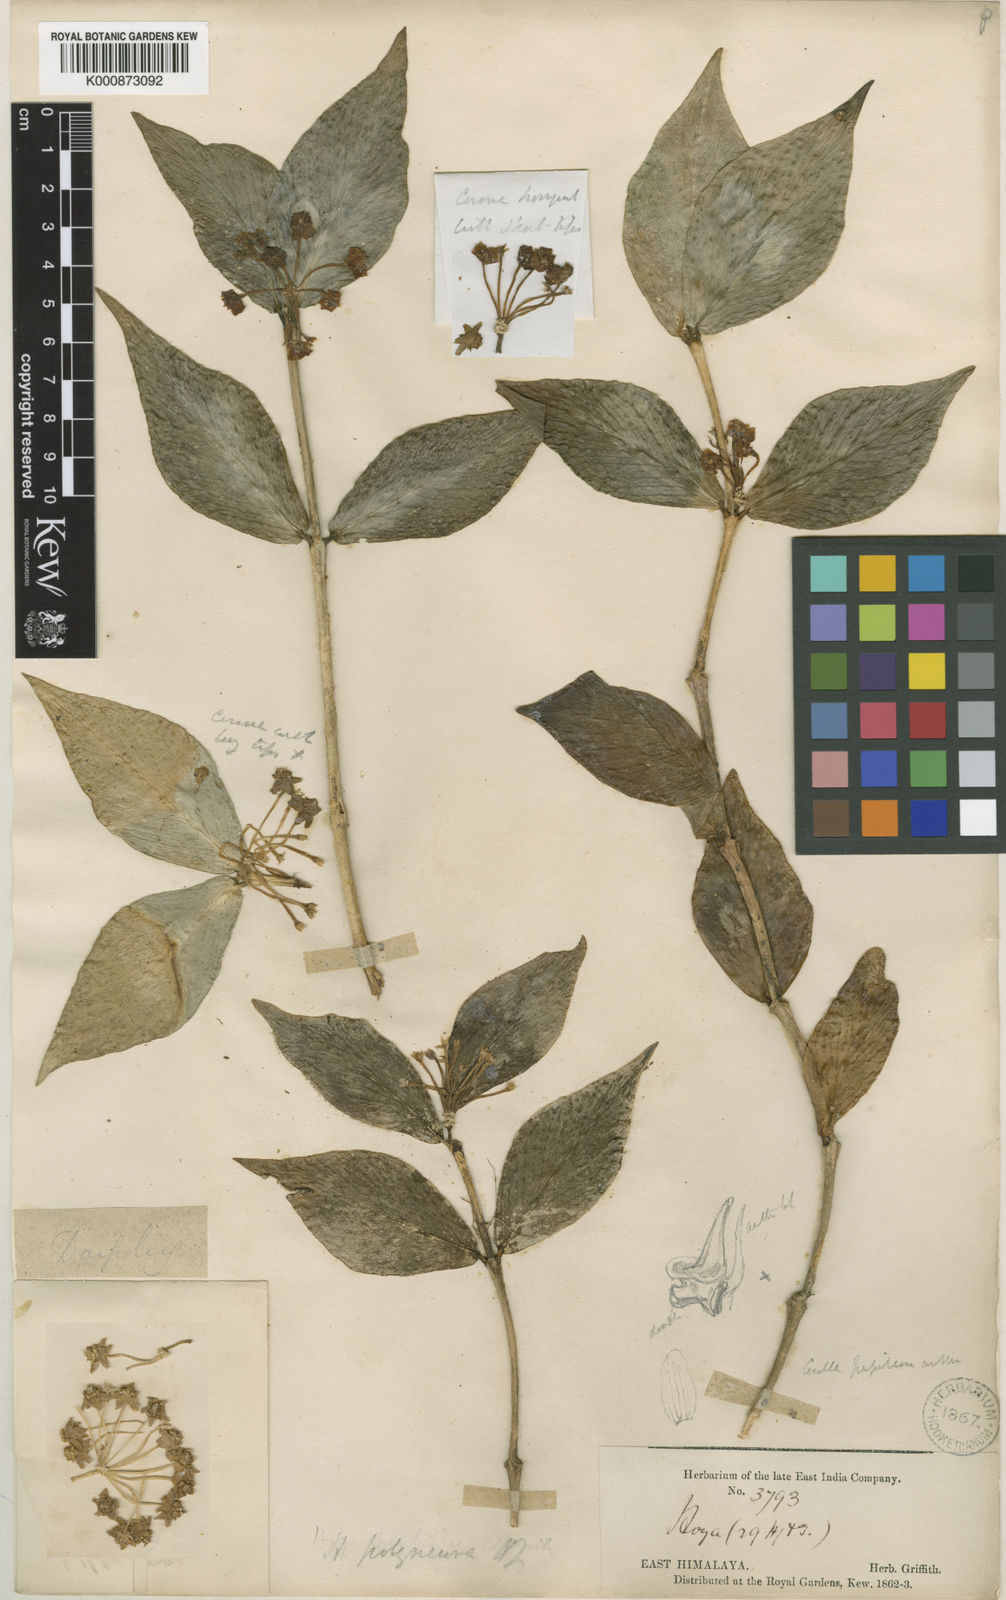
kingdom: Plantae
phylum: Tracheophyta
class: Magnoliopsida
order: Gentianales
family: Apocynaceae
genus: Hoya
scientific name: Hoya polyneura
